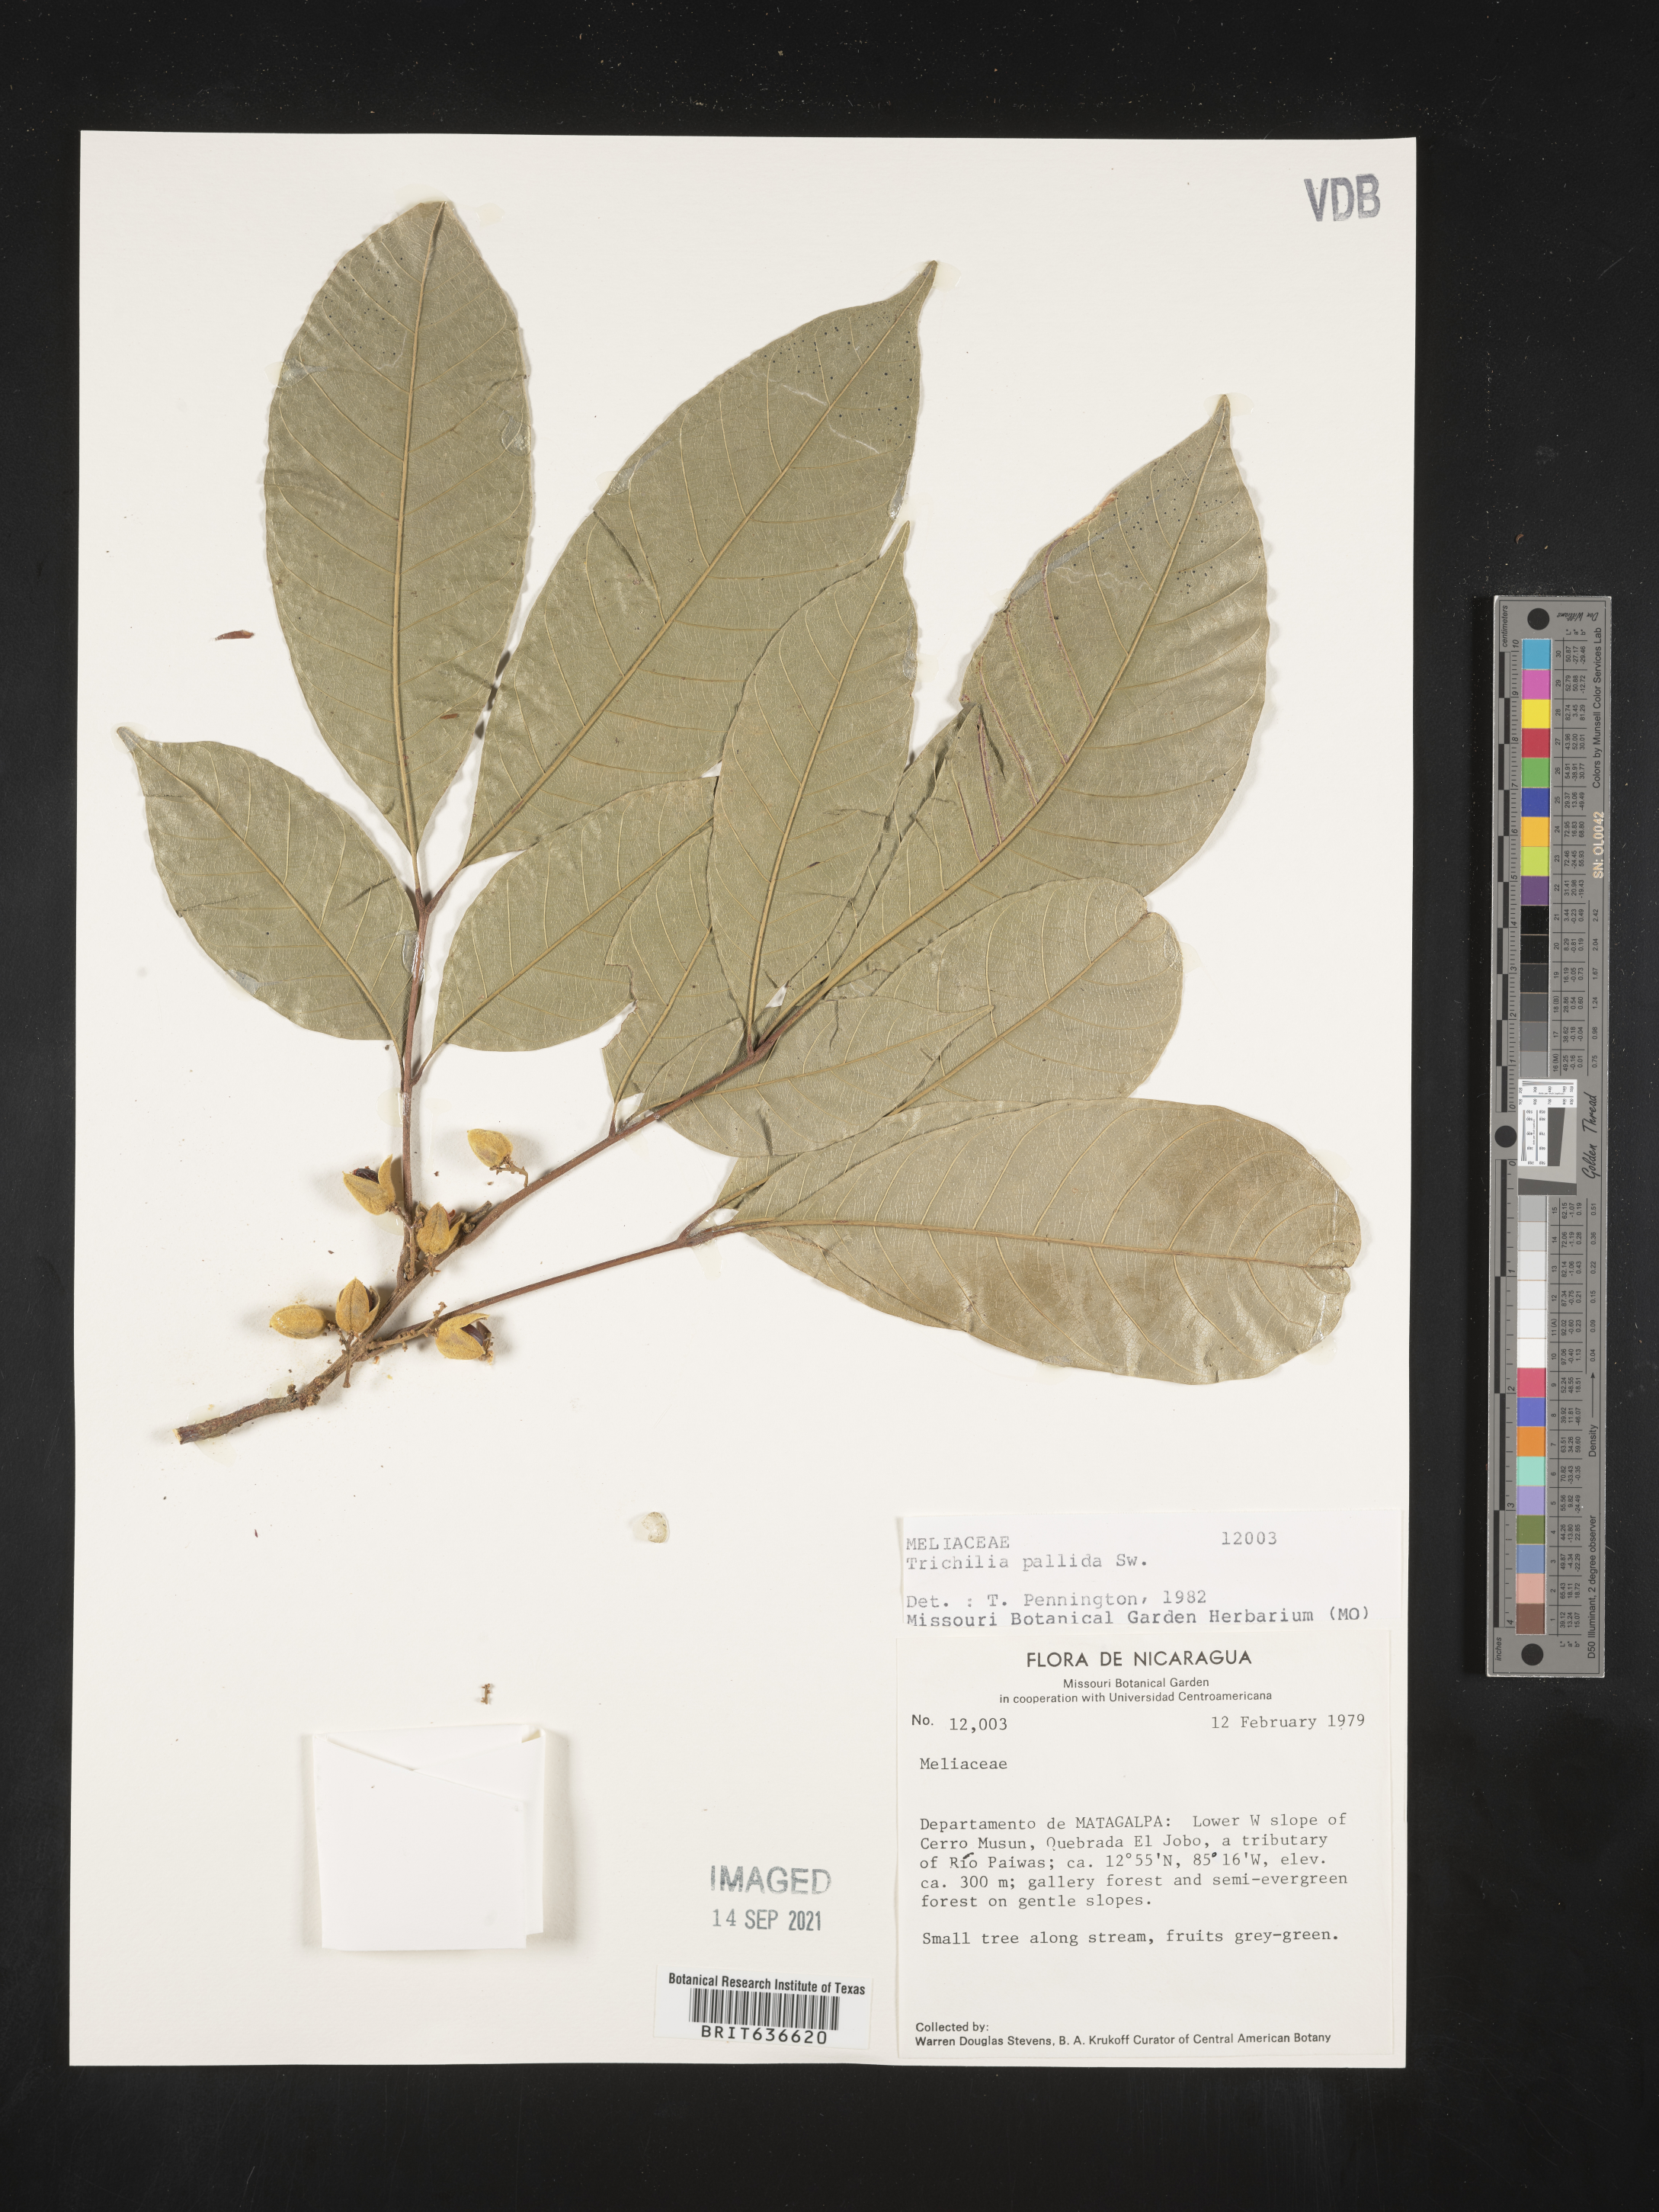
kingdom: Plantae
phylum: Tracheophyta
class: Magnoliopsida
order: Sapindales
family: Meliaceae
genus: Trichilia
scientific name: Trichilia
